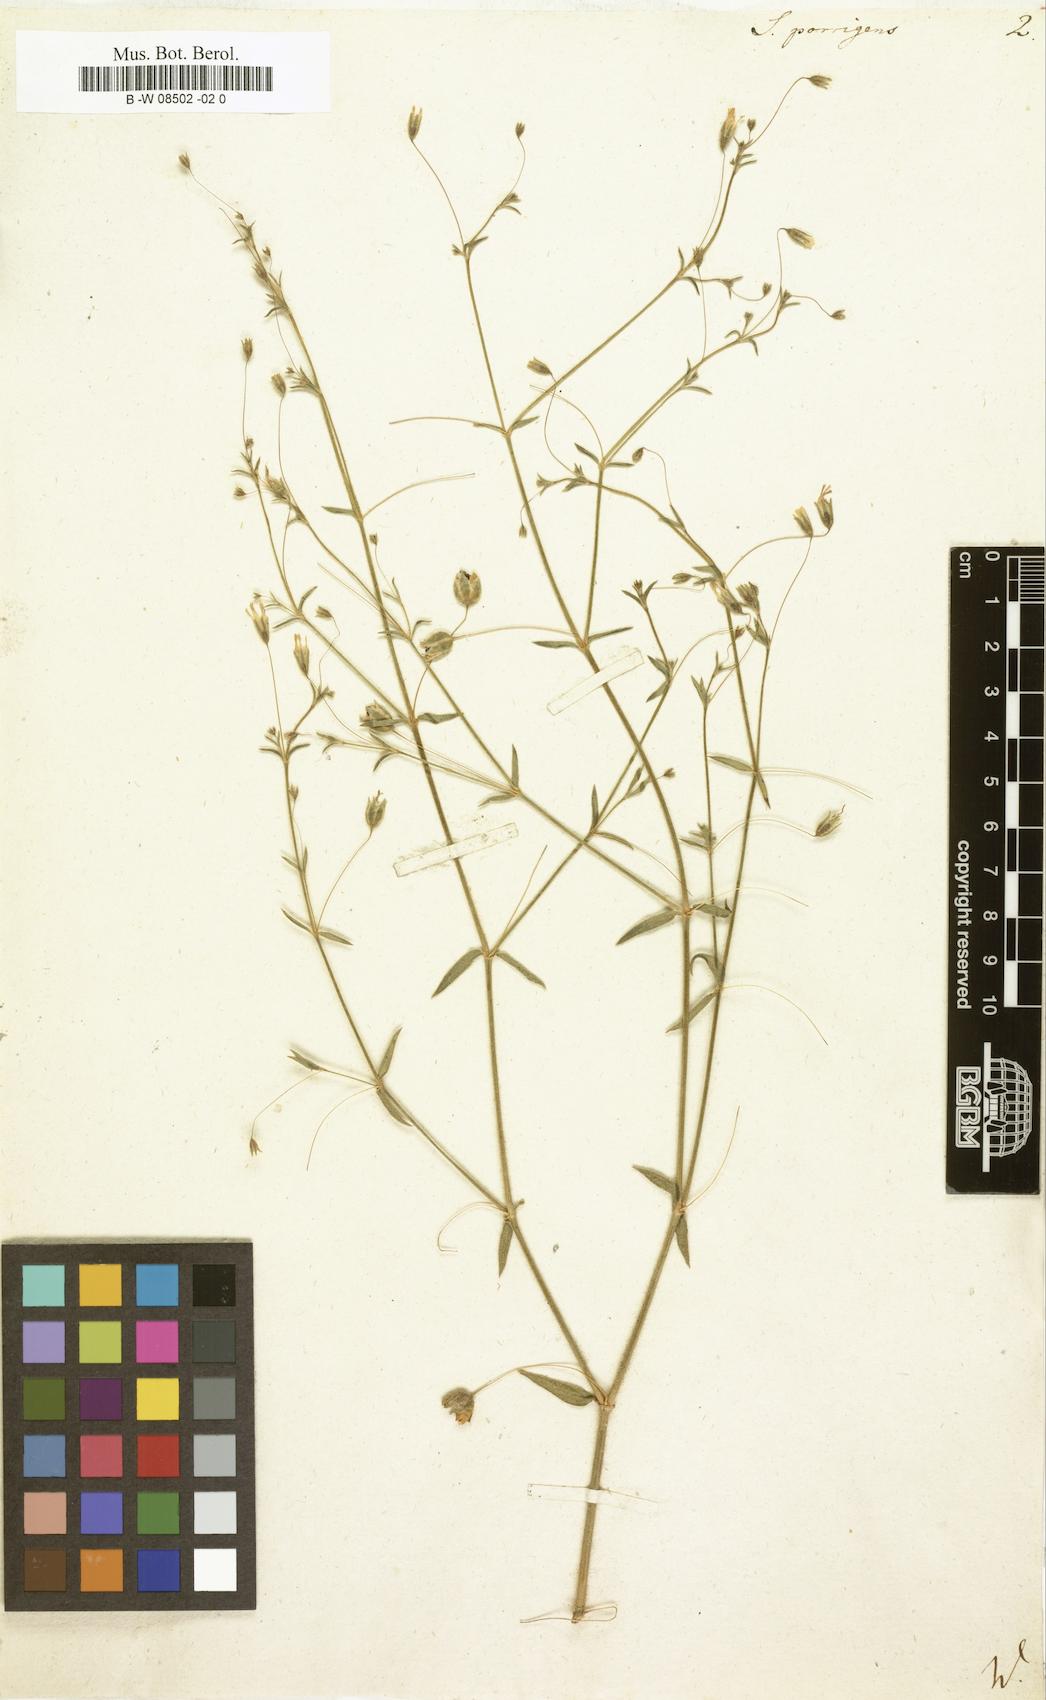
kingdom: Plantae
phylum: Tracheophyta
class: Magnoliopsida
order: Caryophyllales
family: Caryophyllaceae
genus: Gypsophila
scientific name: Gypsophila pilosa
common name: Turkish baby's-breath
